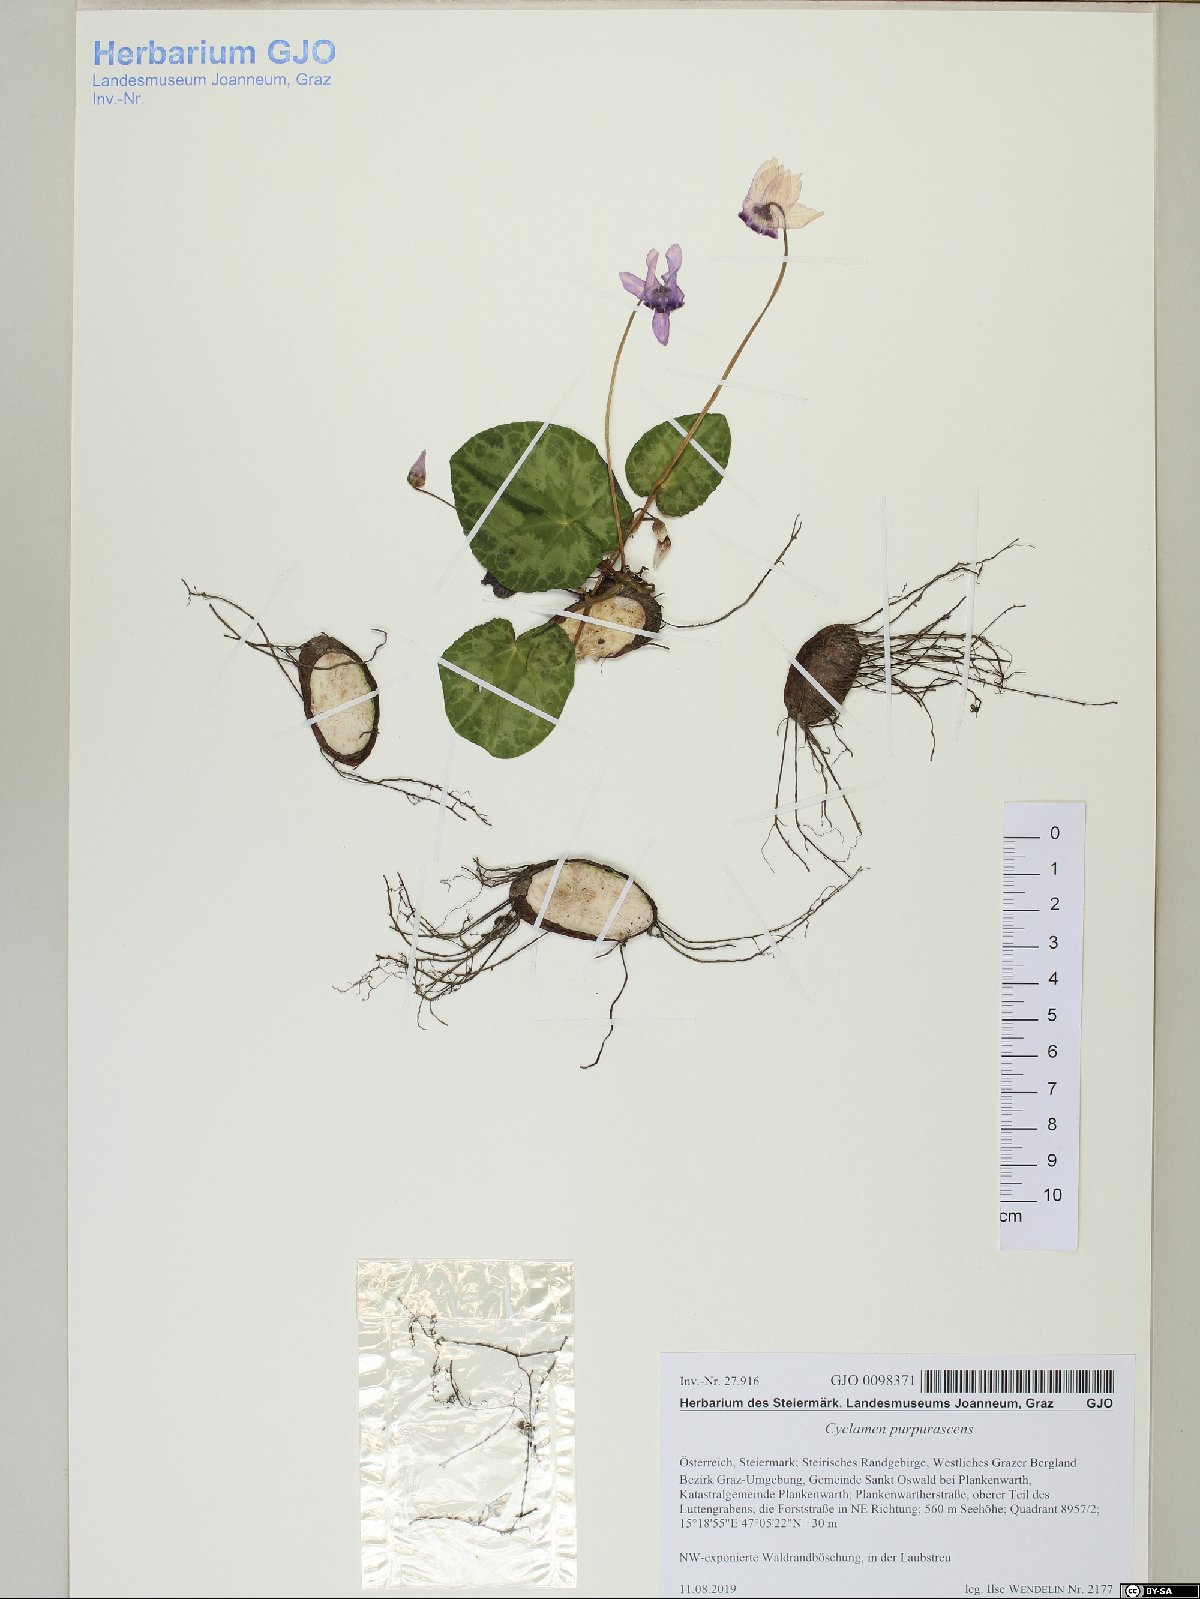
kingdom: Plantae
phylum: Tracheophyta
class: Magnoliopsida
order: Ericales
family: Primulaceae
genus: Cyclamen
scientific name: Cyclamen purpurascens
